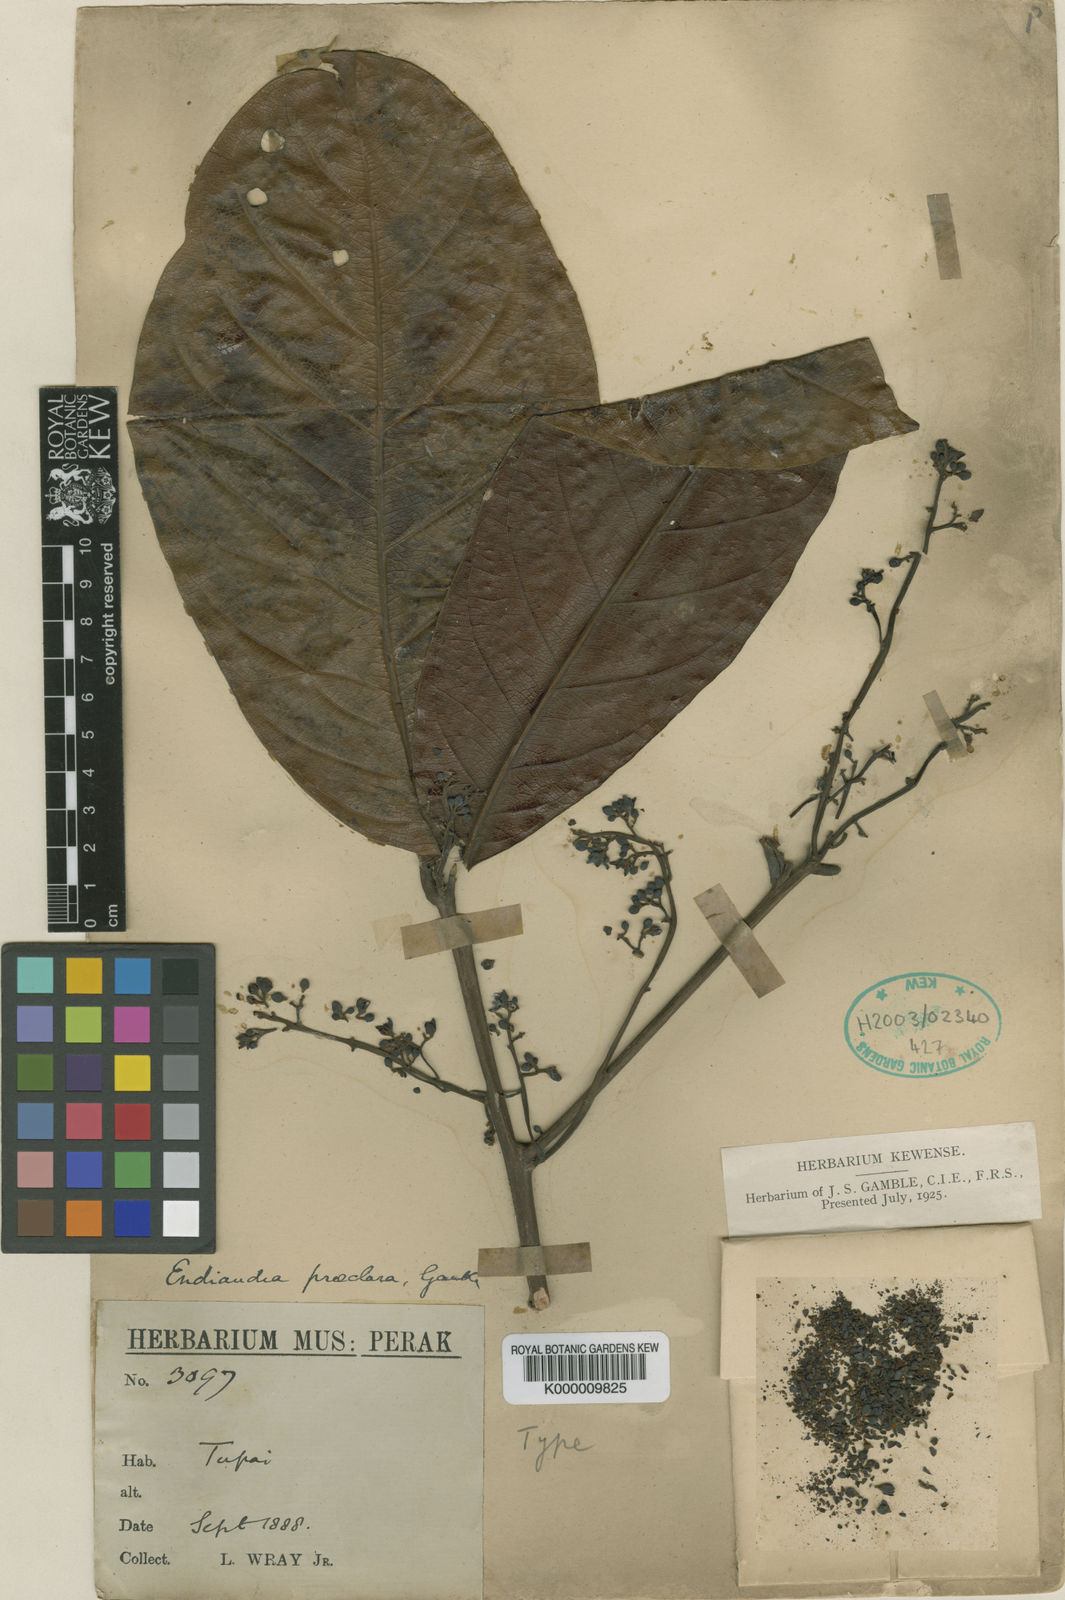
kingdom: Plantae
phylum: Tracheophyta
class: Magnoliopsida
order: Laurales
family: Lauraceae
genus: Endiandra
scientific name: Endiandra praeclara
